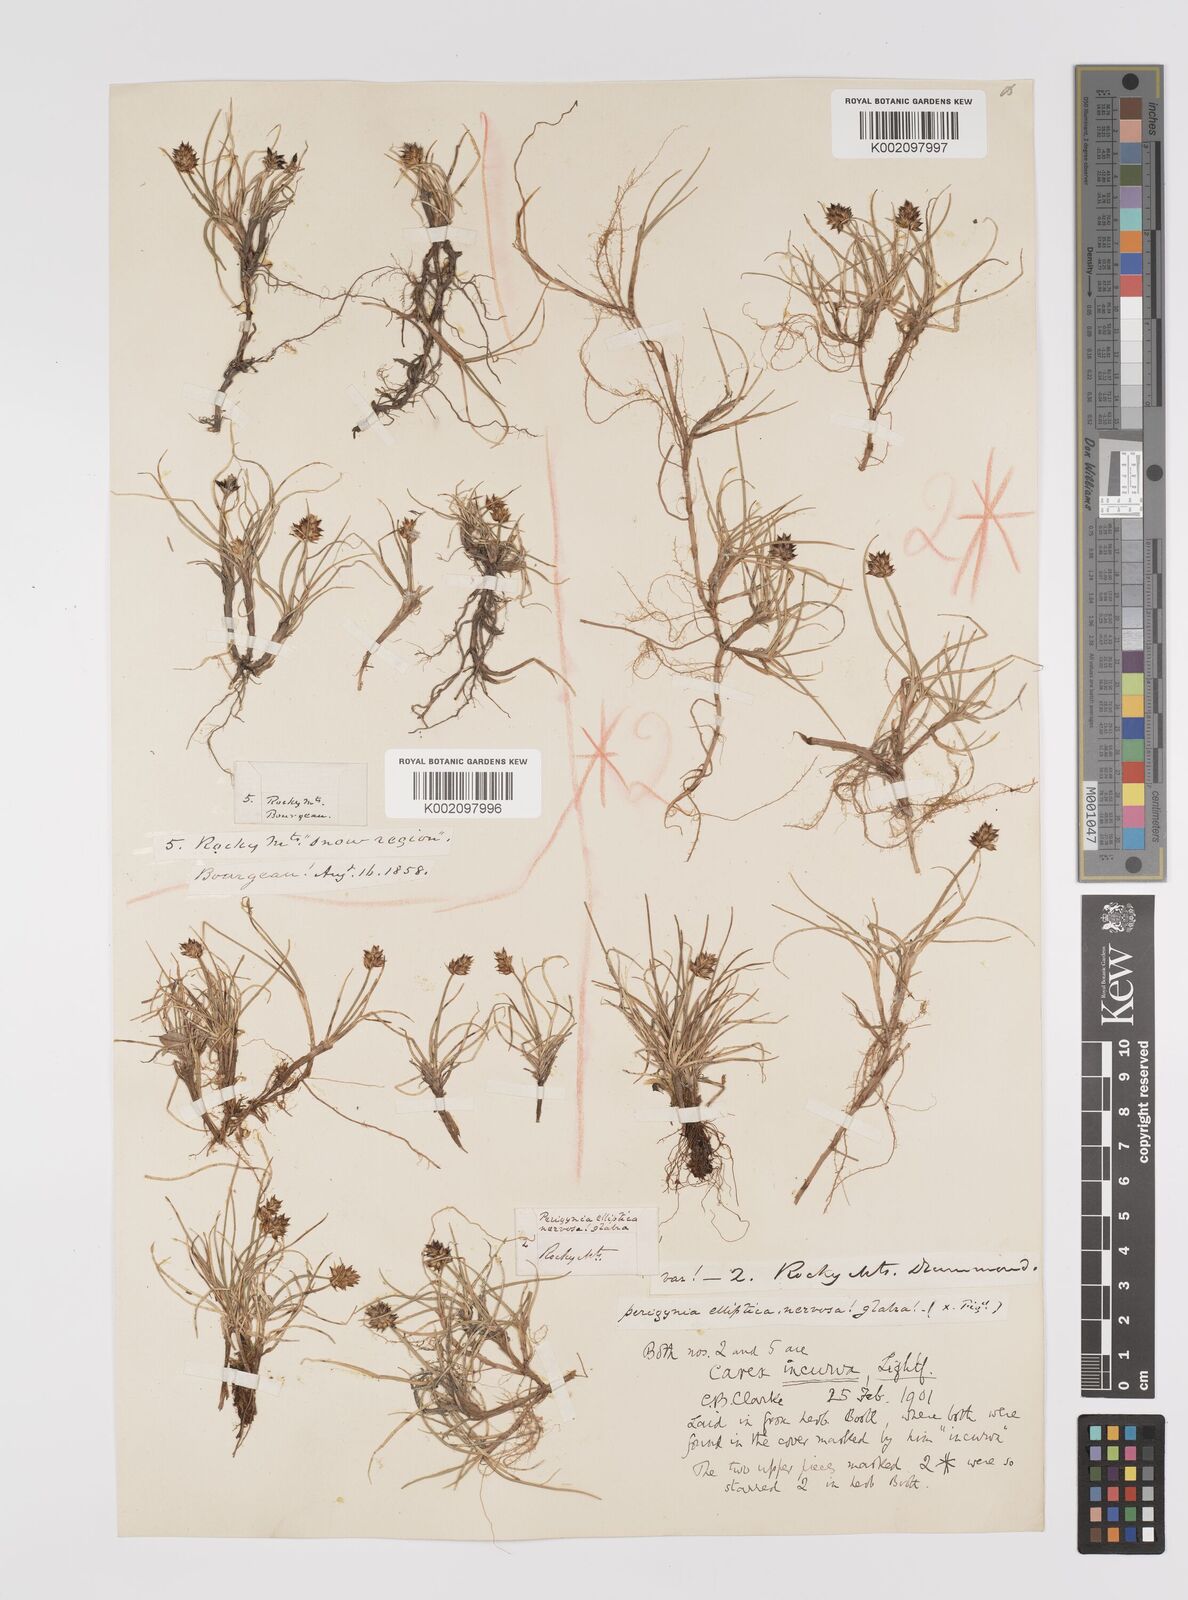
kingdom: Plantae
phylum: Tracheophyta
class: Liliopsida
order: Poales
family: Cyperaceae
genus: Carex
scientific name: Carex maritima
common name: Curved sedge
